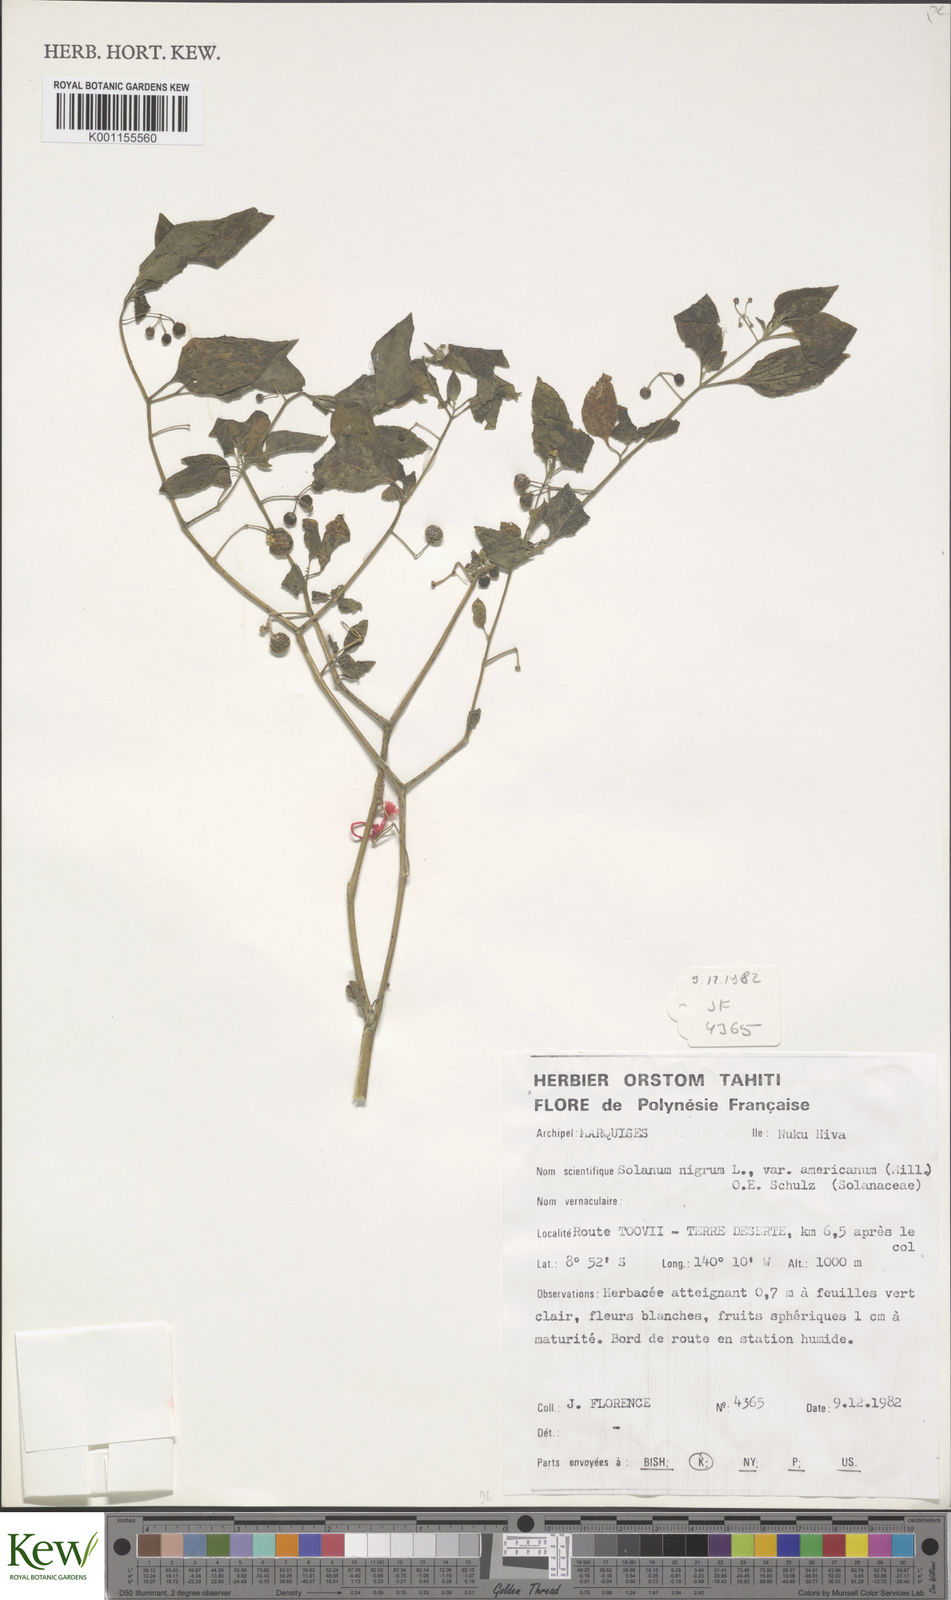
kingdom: Plantae
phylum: Tracheophyta
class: Magnoliopsida
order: Solanales
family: Solanaceae
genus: Solanum
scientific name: Solanum americanum
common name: American black nightshade
